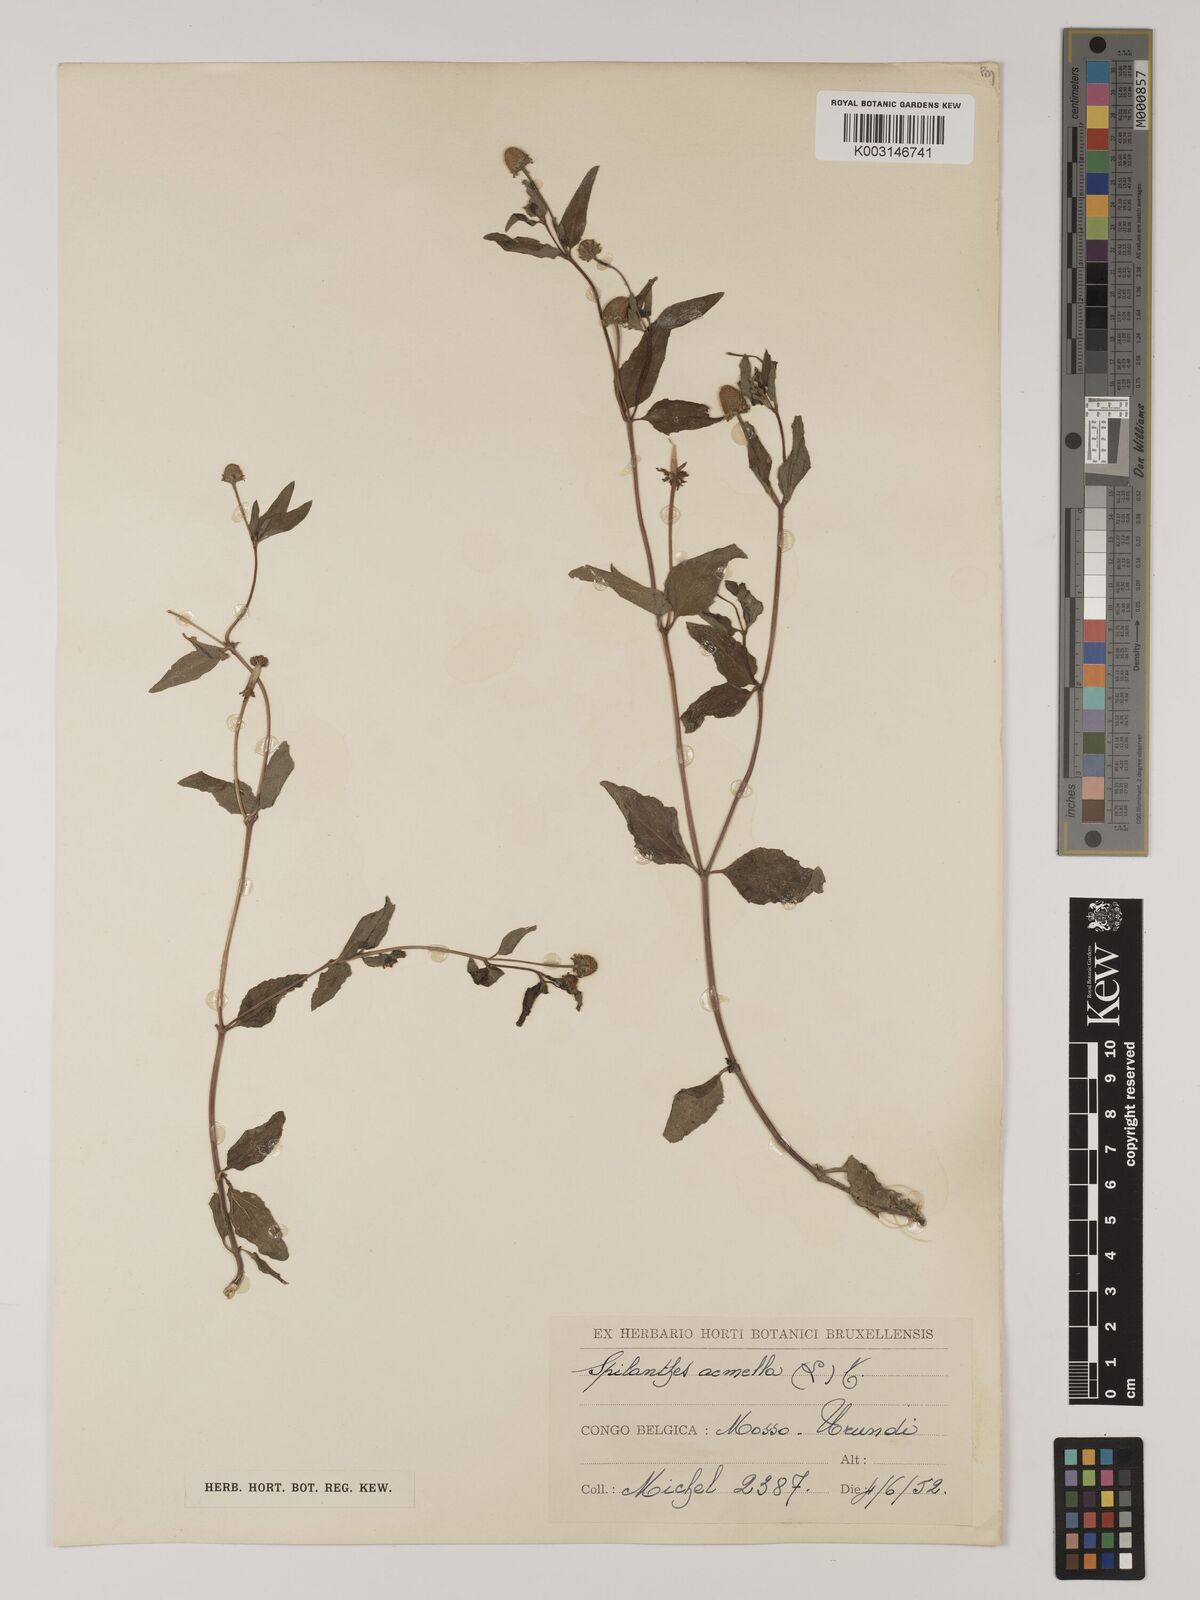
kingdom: Plantae
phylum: Tracheophyta
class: Magnoliopsida
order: Asterales
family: Asteraceae
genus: Blainvillea
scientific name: Blainvillea acmella
